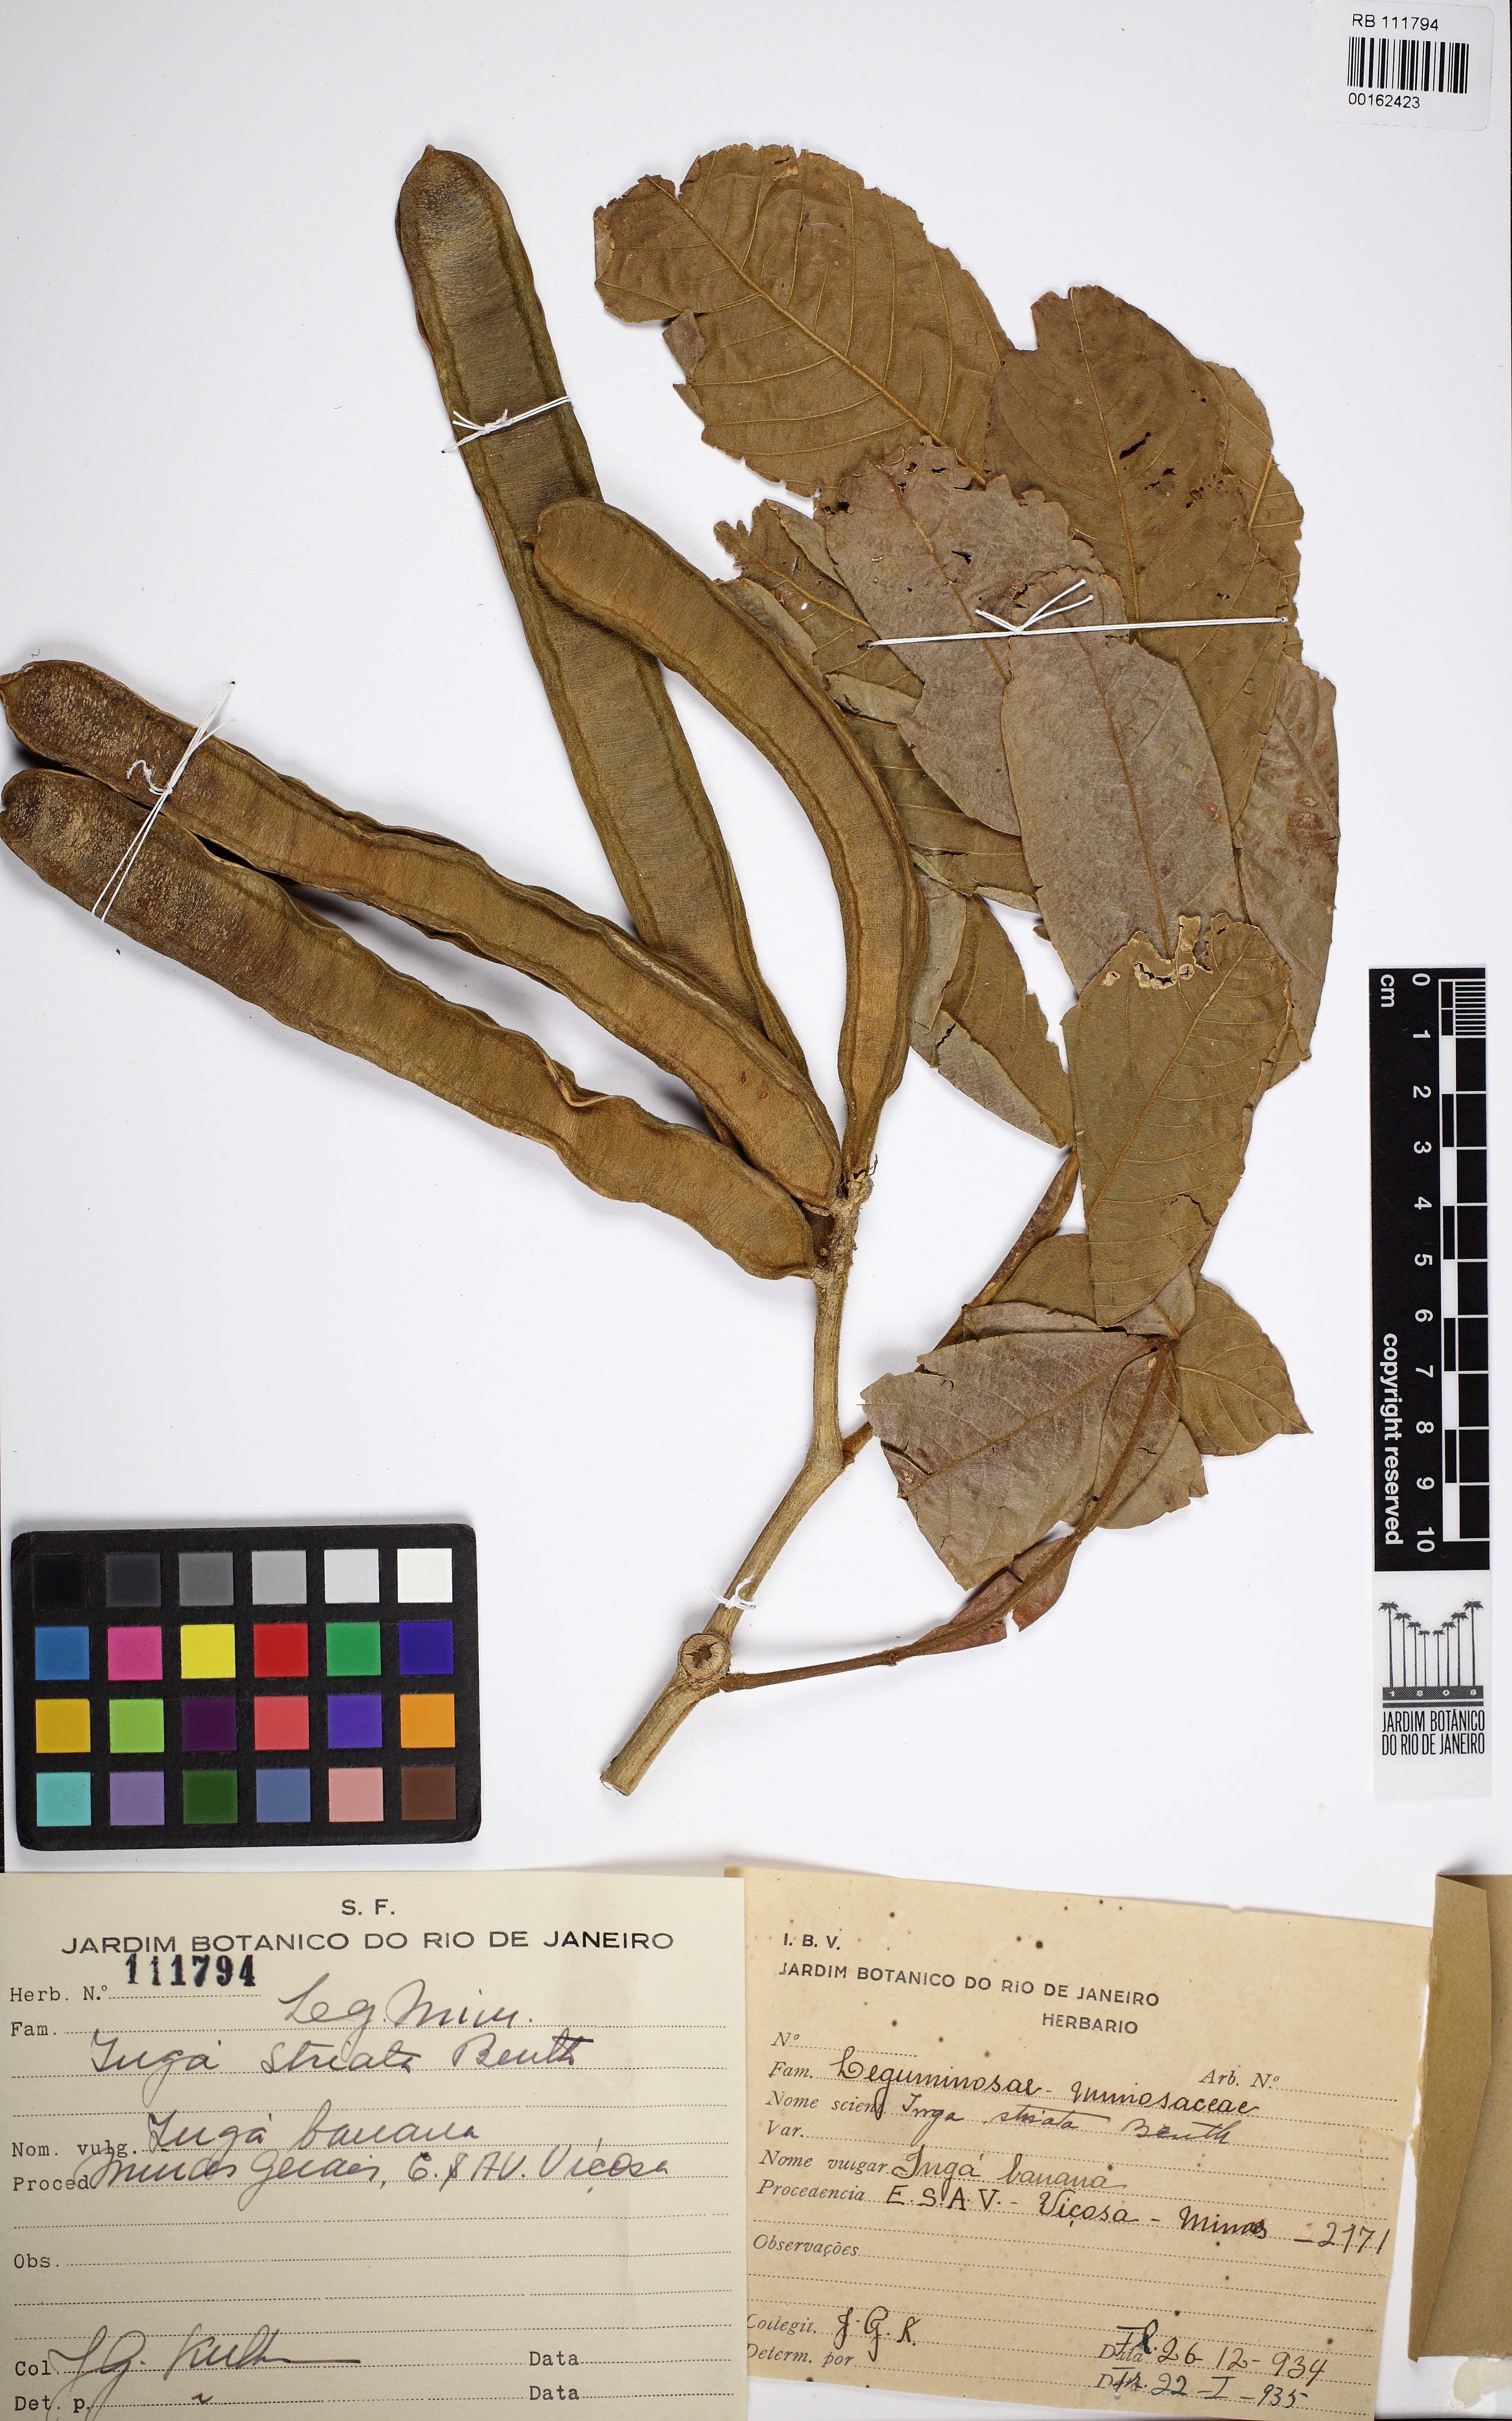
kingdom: Plantae
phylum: Tracheophyta
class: Magnoliopsida
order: Fabales
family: Fabaceae
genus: Inga
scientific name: Inga striata
